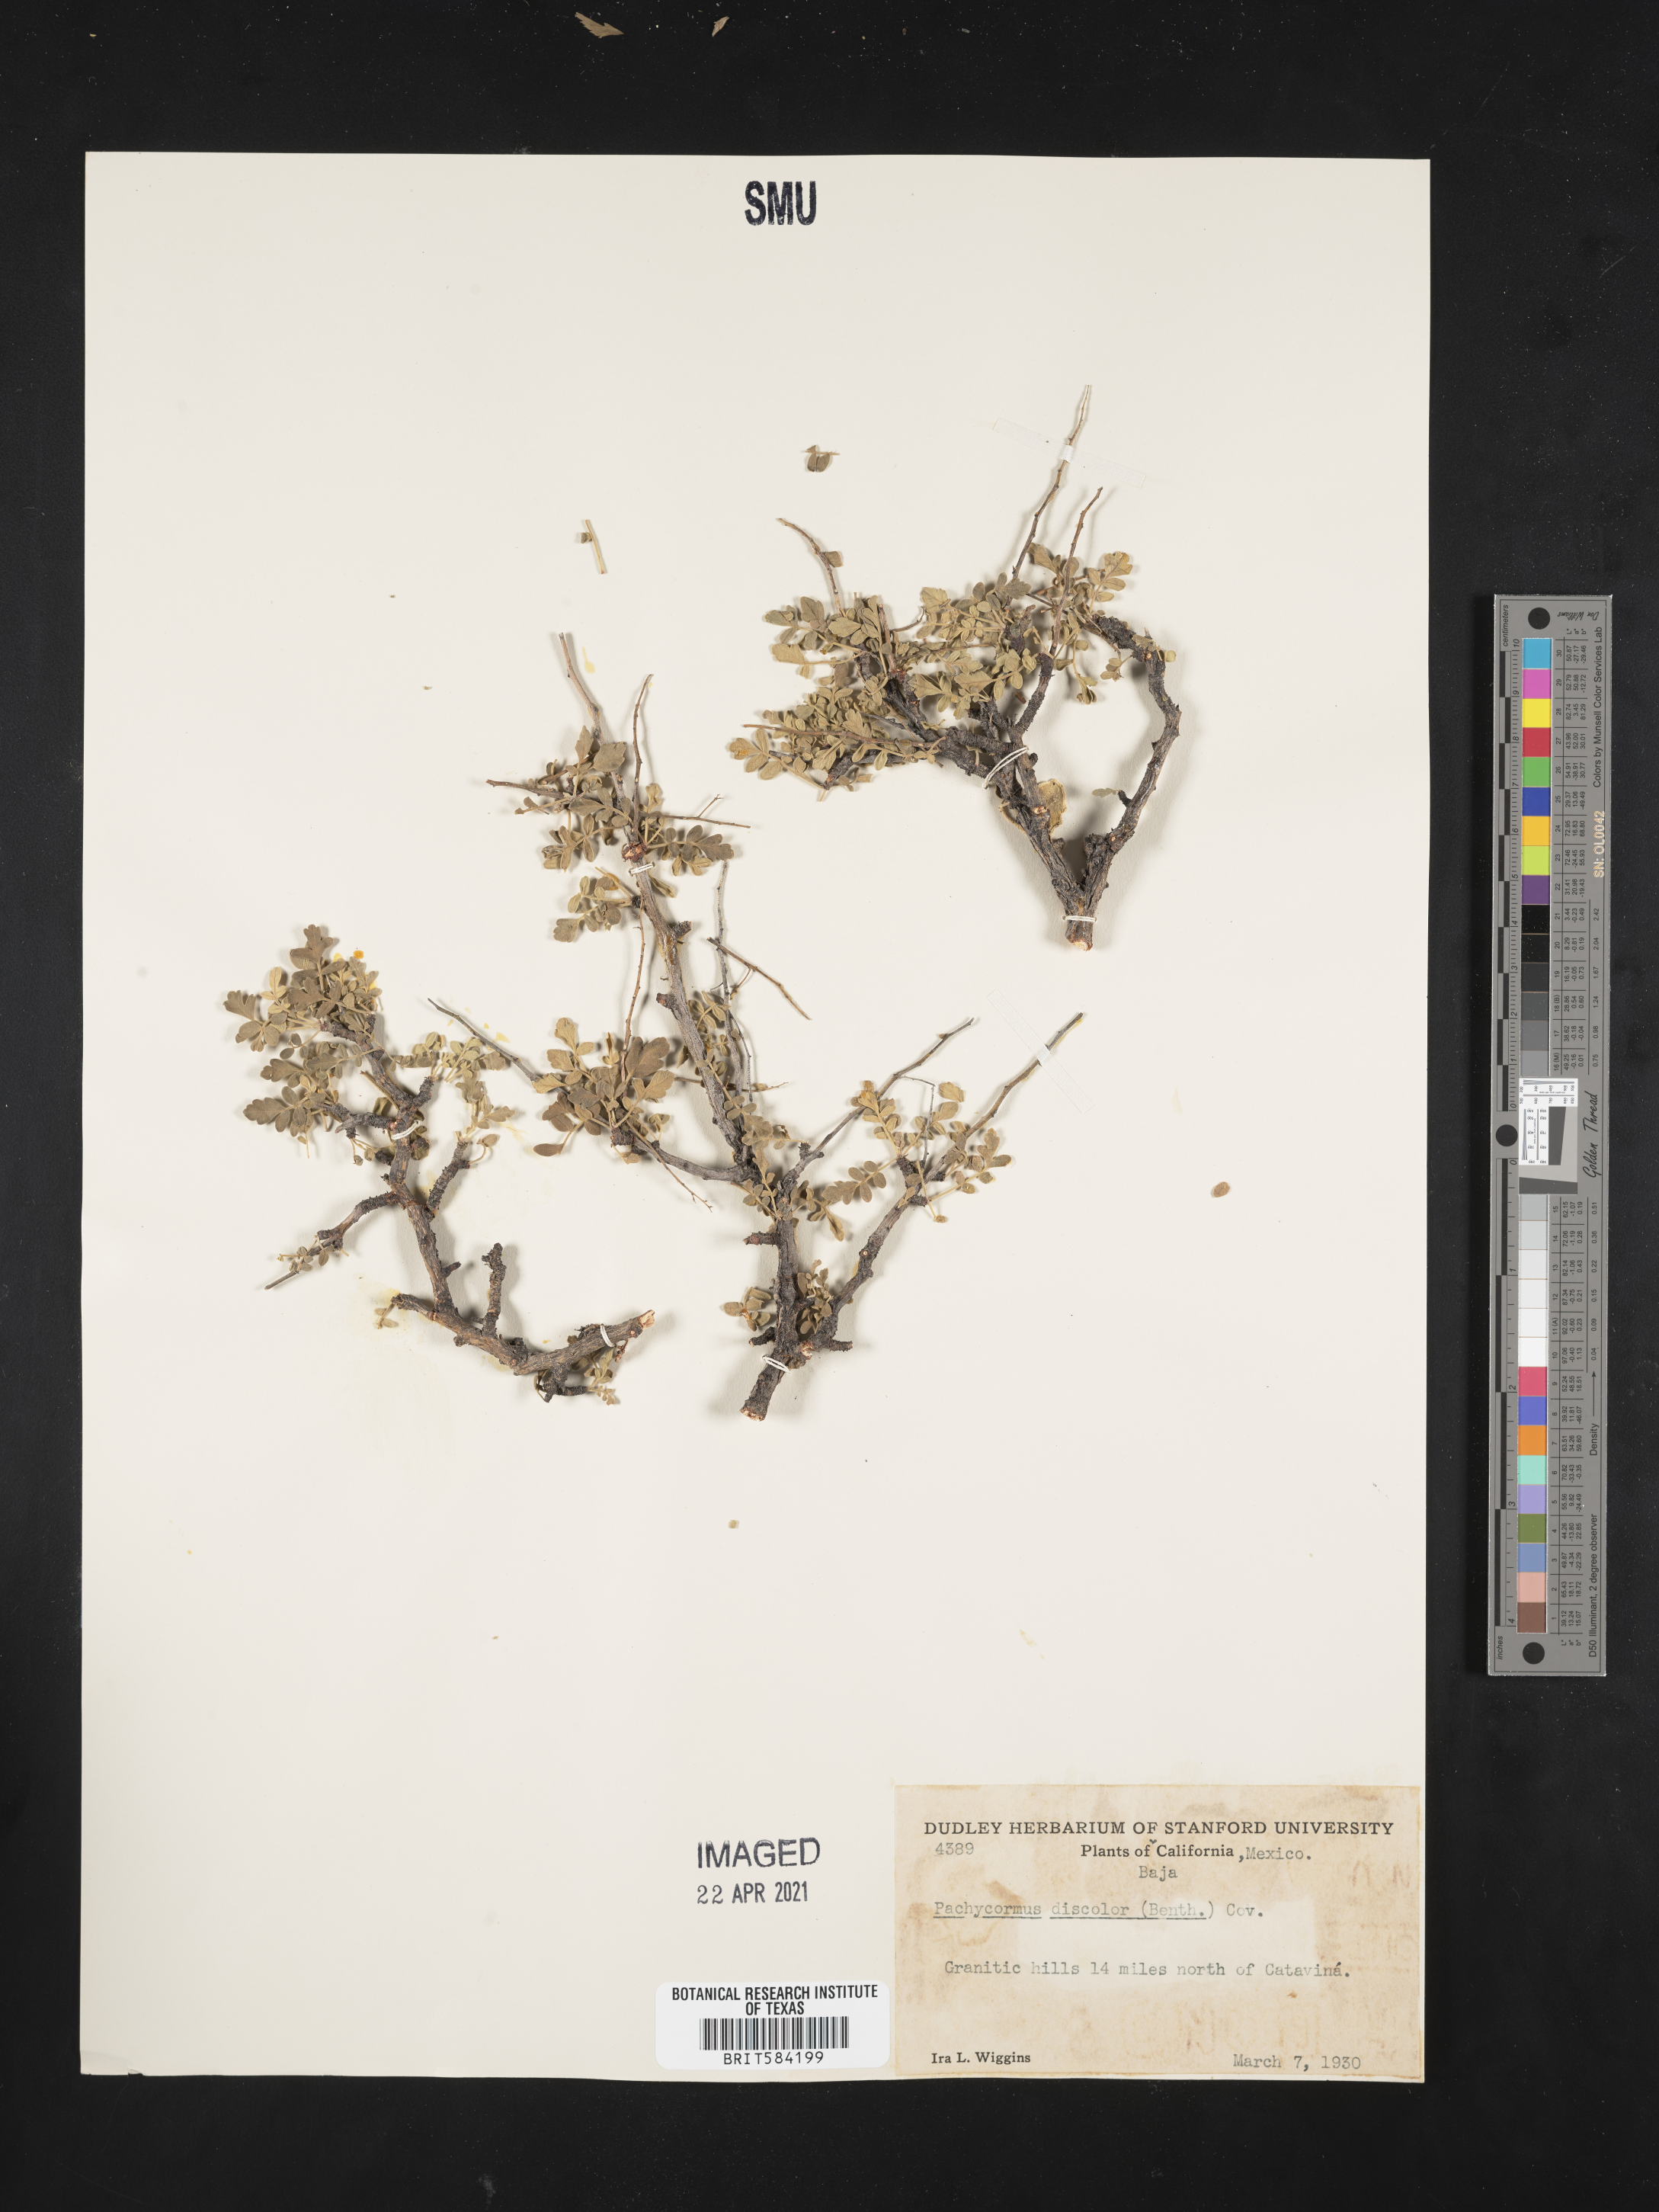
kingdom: Plantae
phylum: Tracheophyta
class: Magnoliopsida
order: Sapindales
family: Anacardiaceae
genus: Pachycormus
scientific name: Pachycormus discolor
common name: Succulent elephant trees
